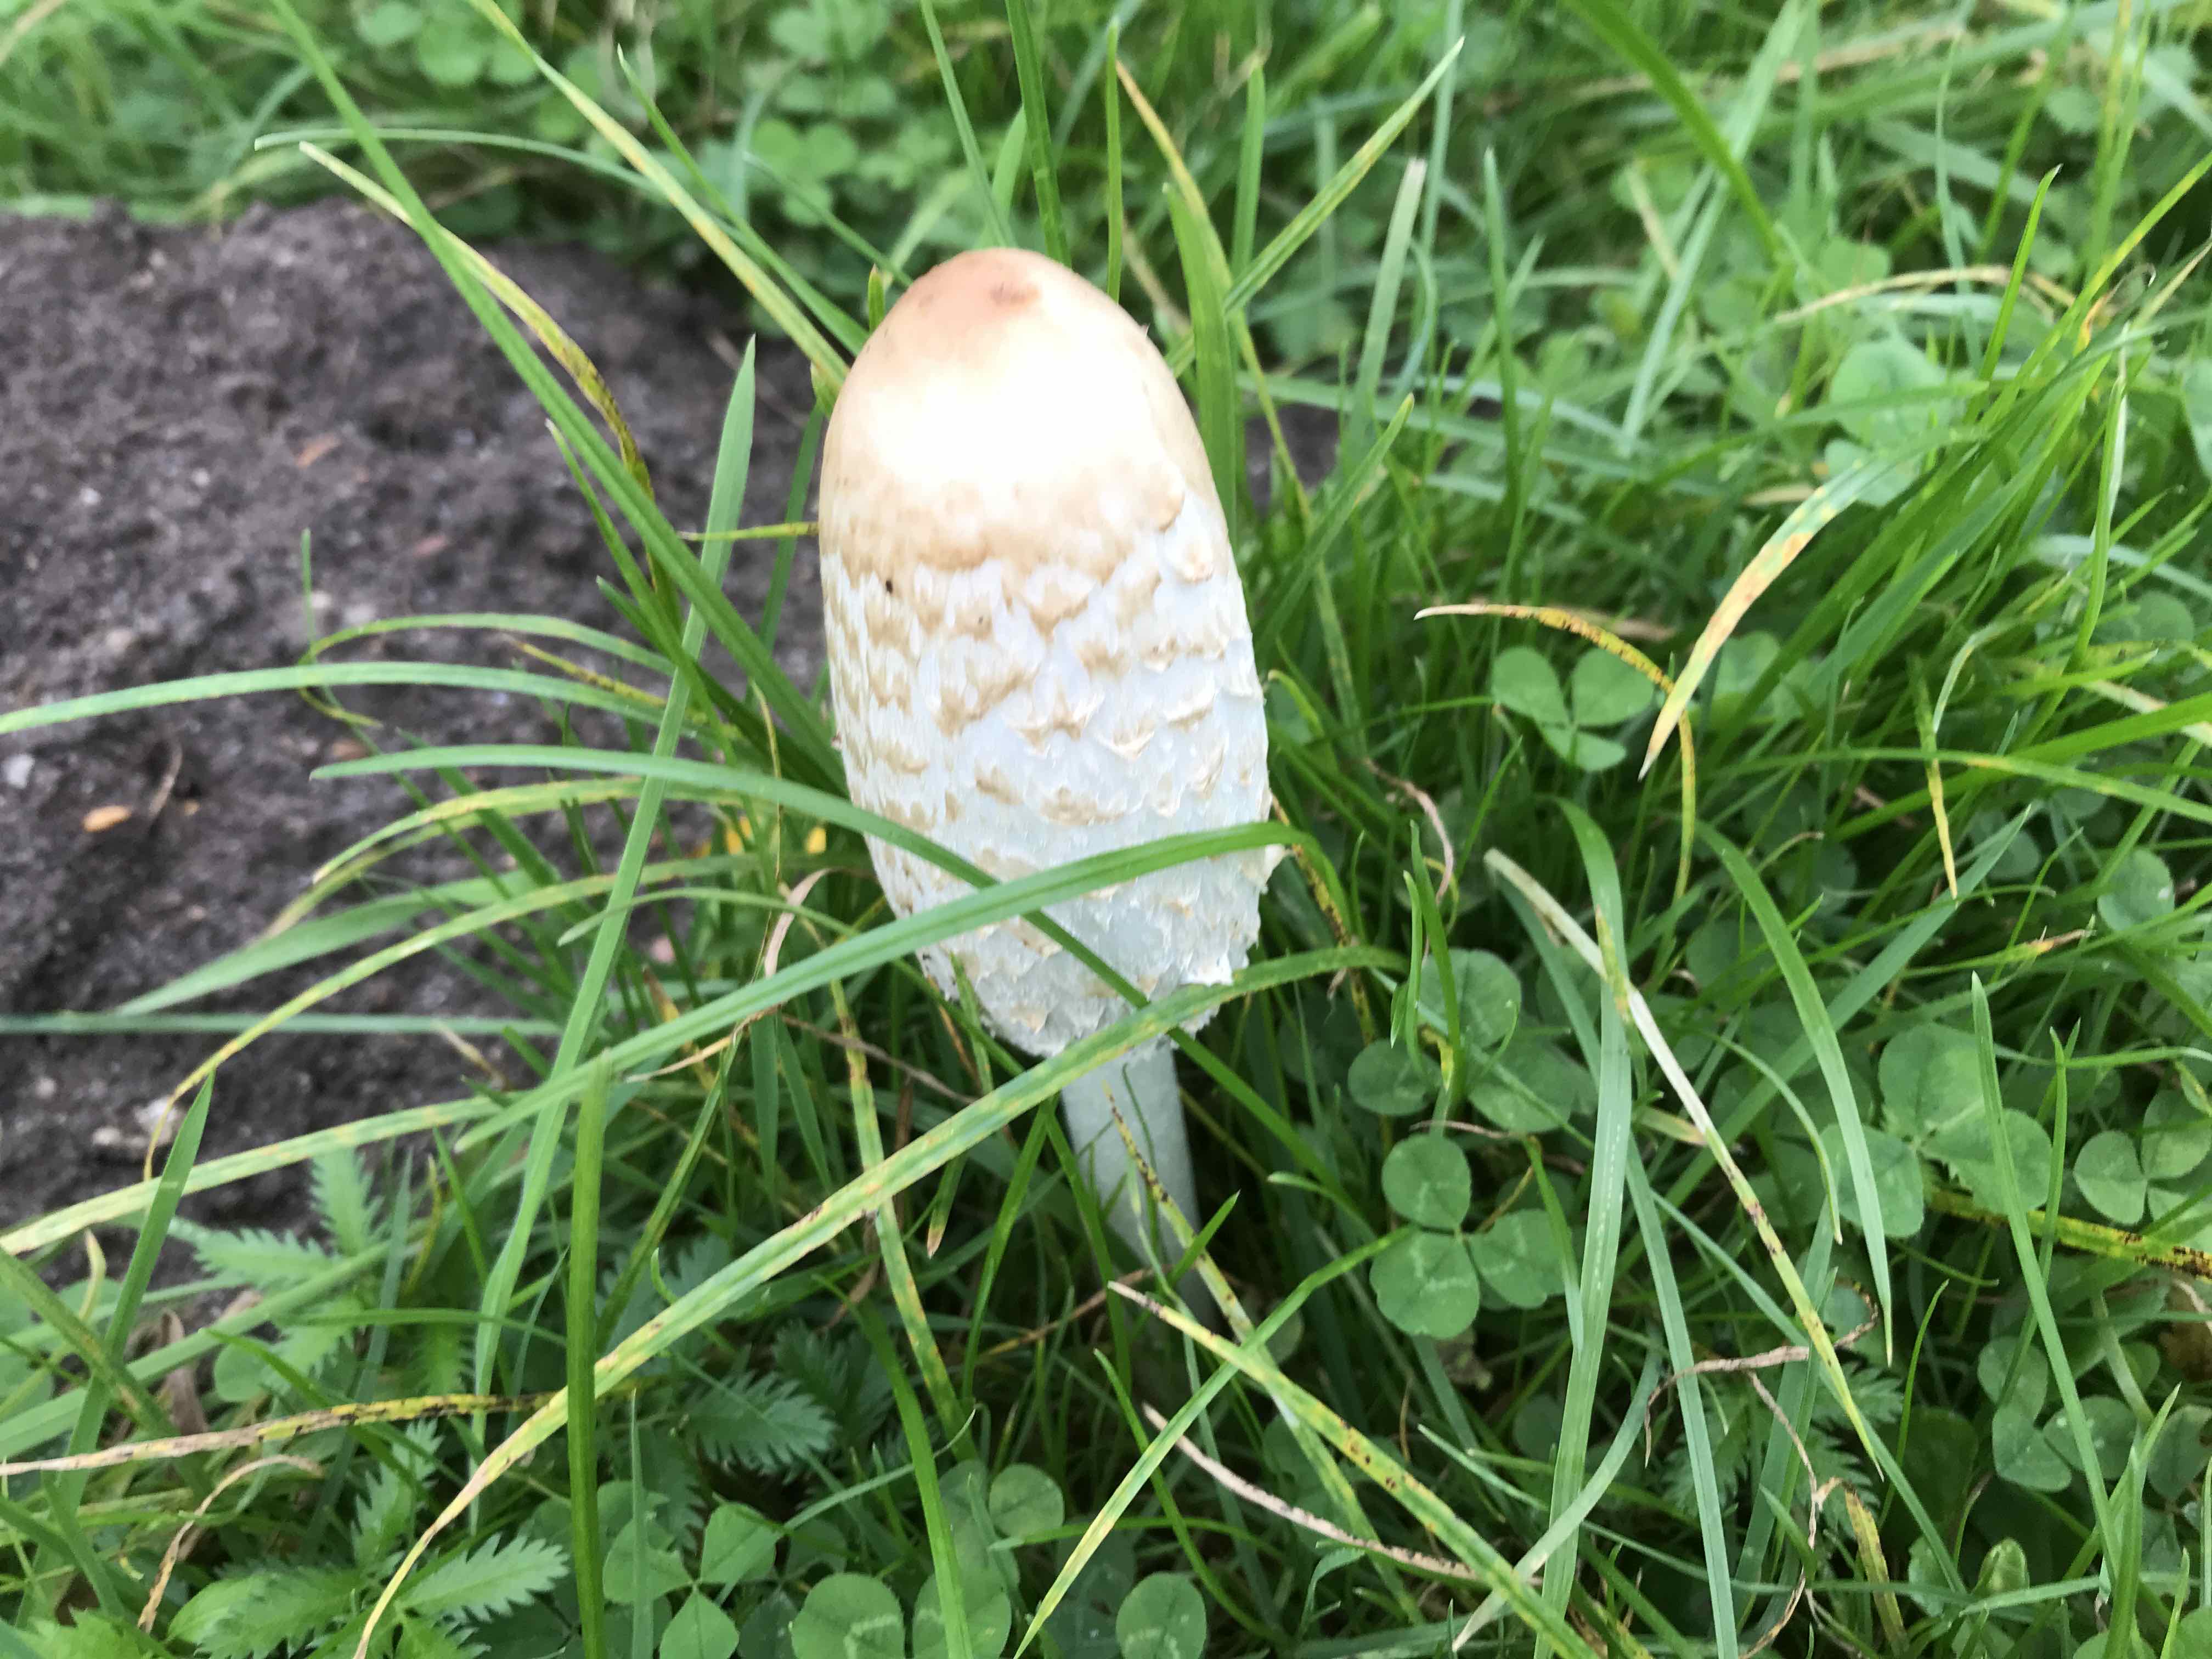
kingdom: Fungi
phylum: Basidiomycota
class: Agaricomycetes
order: Agaricales
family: Agaricaceae
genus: Coprinus
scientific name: Coprinus comatus
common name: stor parykhat
